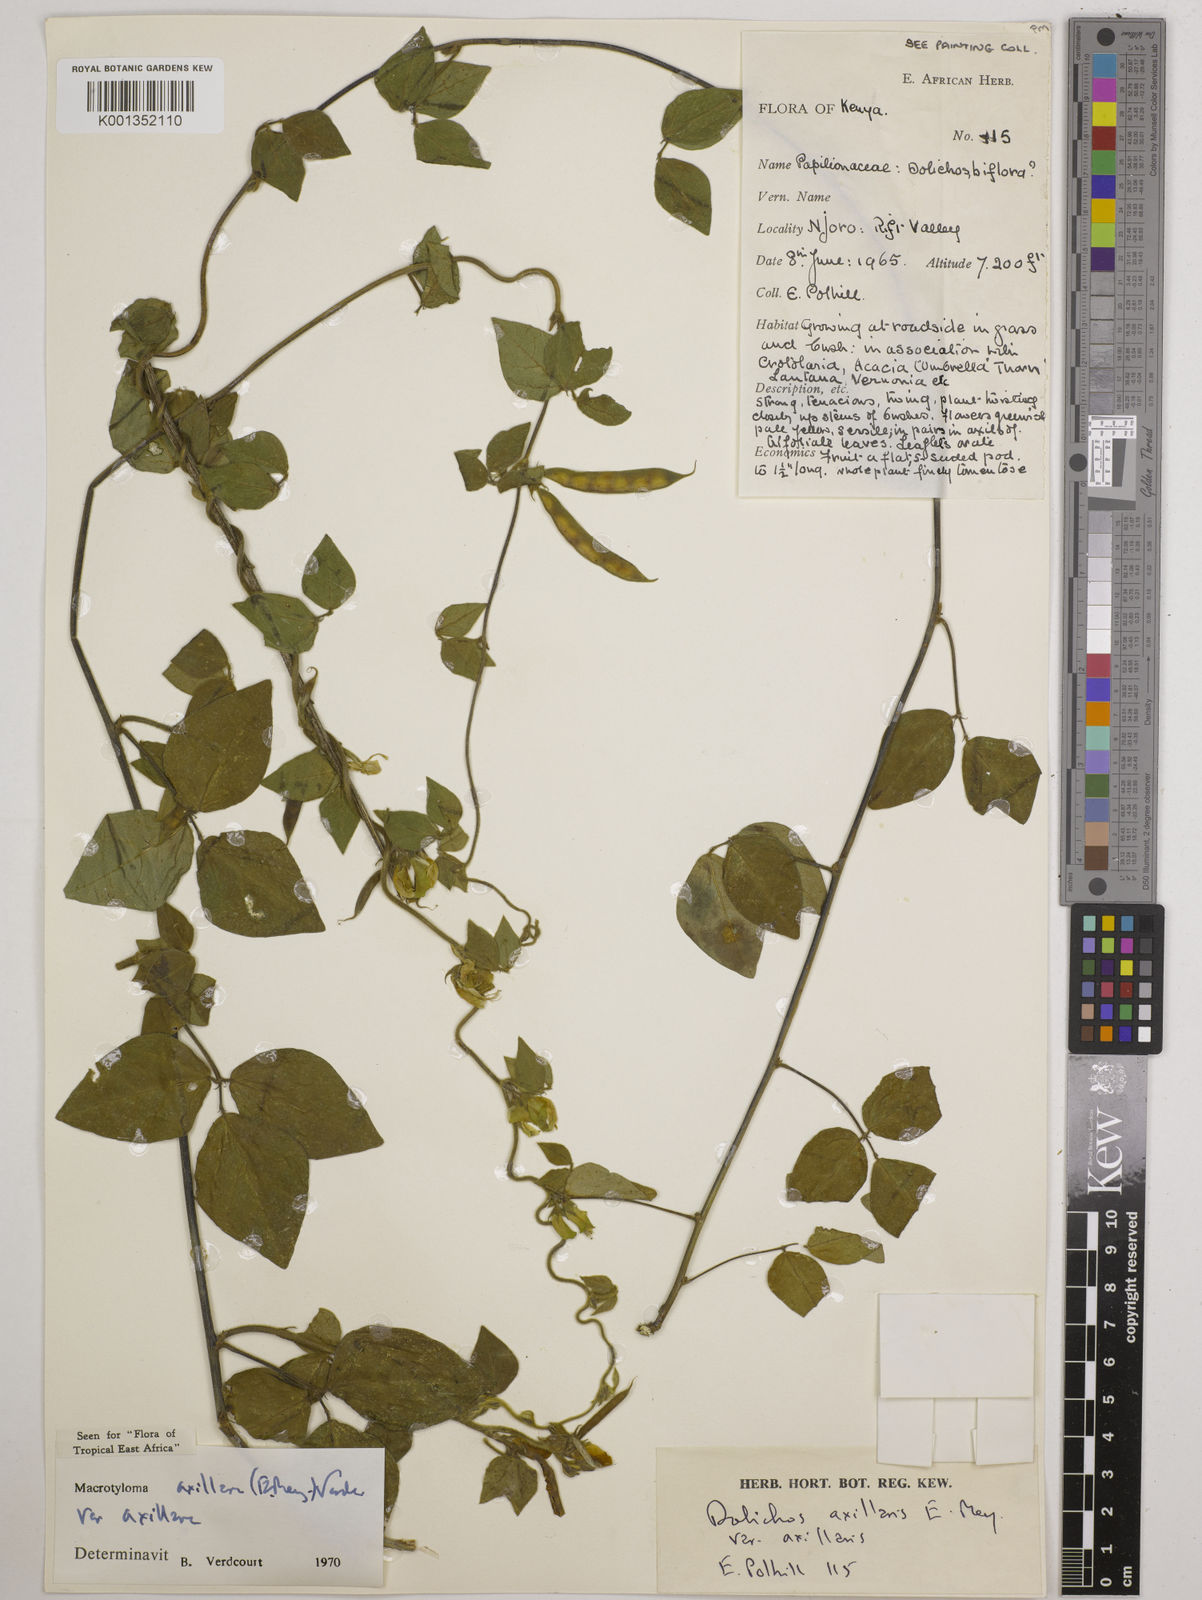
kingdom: Plantae
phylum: Tracheophyta
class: Magnoliopsida
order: Fabales
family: Fabaceae
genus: Macrotyloma
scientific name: Macrotyloma axillare
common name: Perennial horsegram
